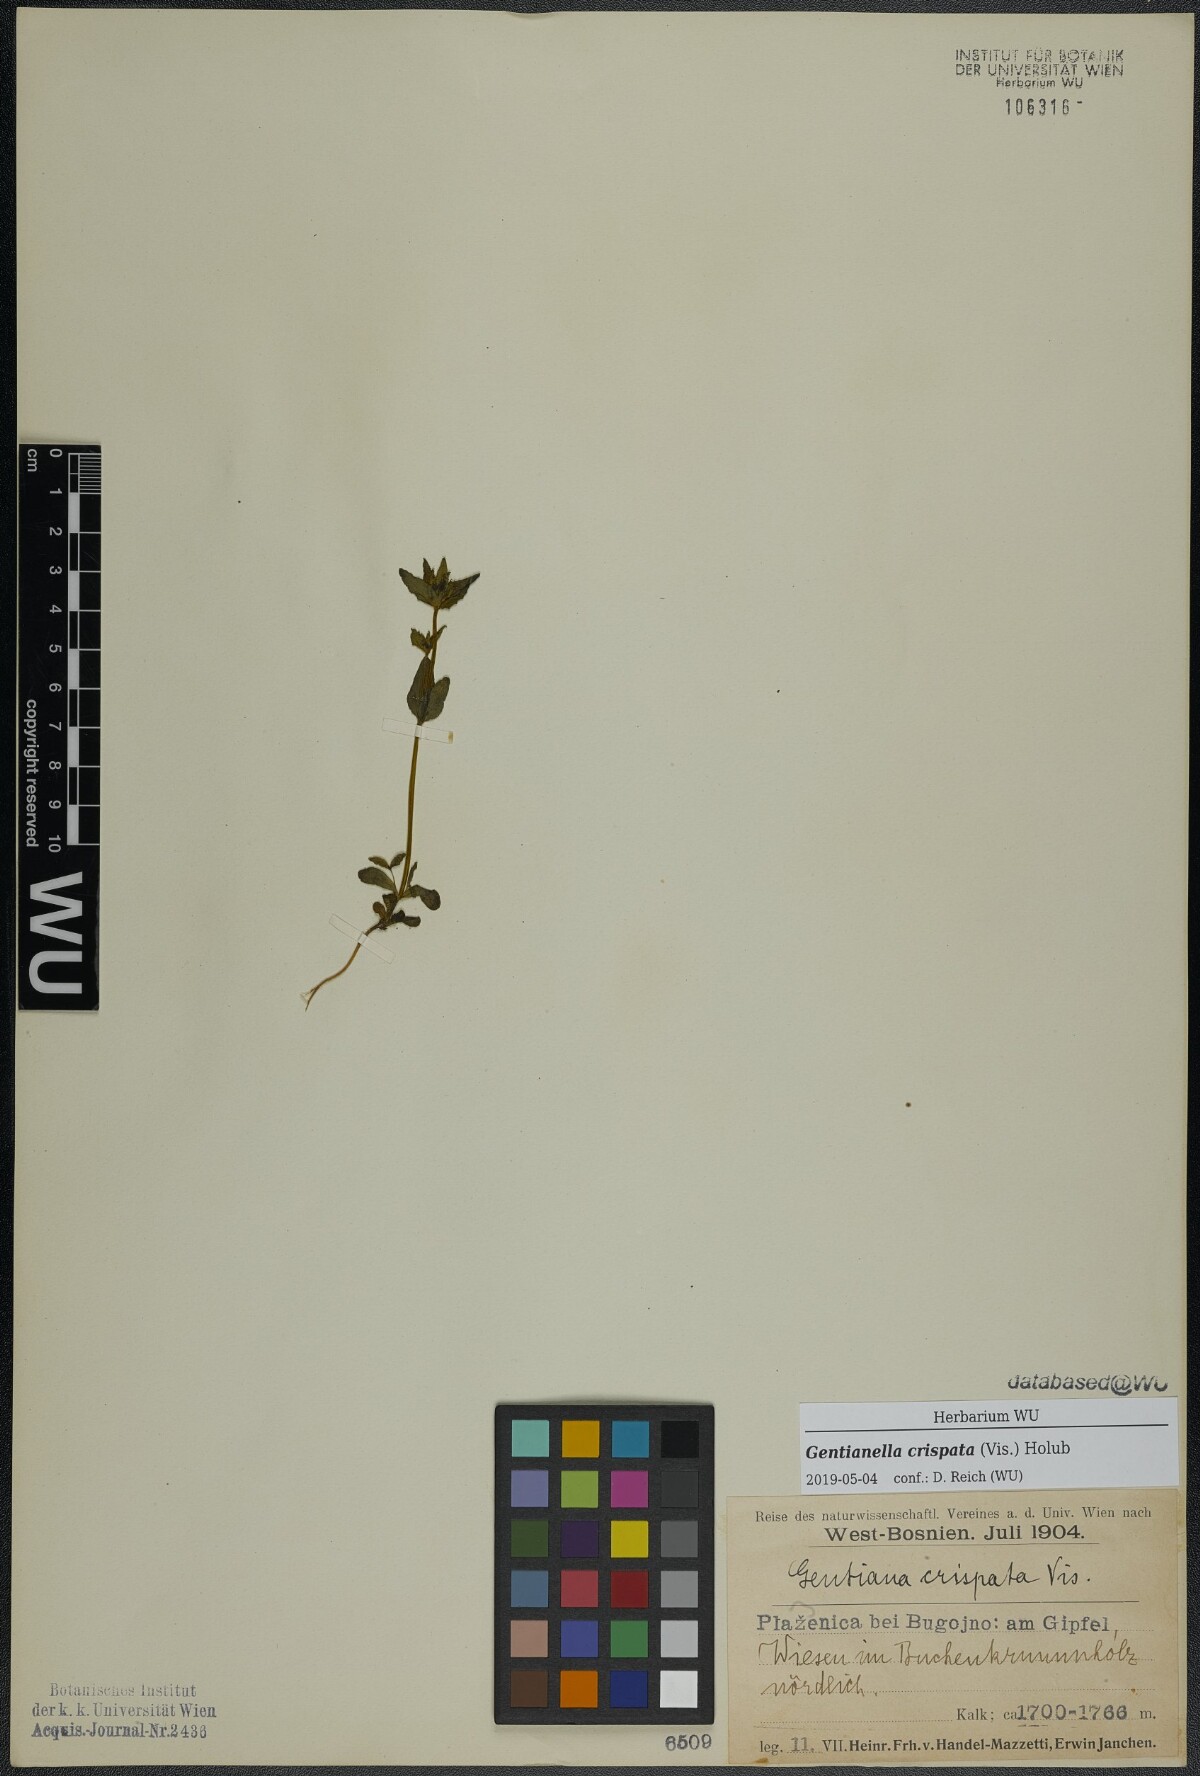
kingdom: Plantae
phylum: Tracheophyta
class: Magnoliopsida
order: Gentianales
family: Gentianaceae
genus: Gentianella
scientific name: Gentianella crispata
